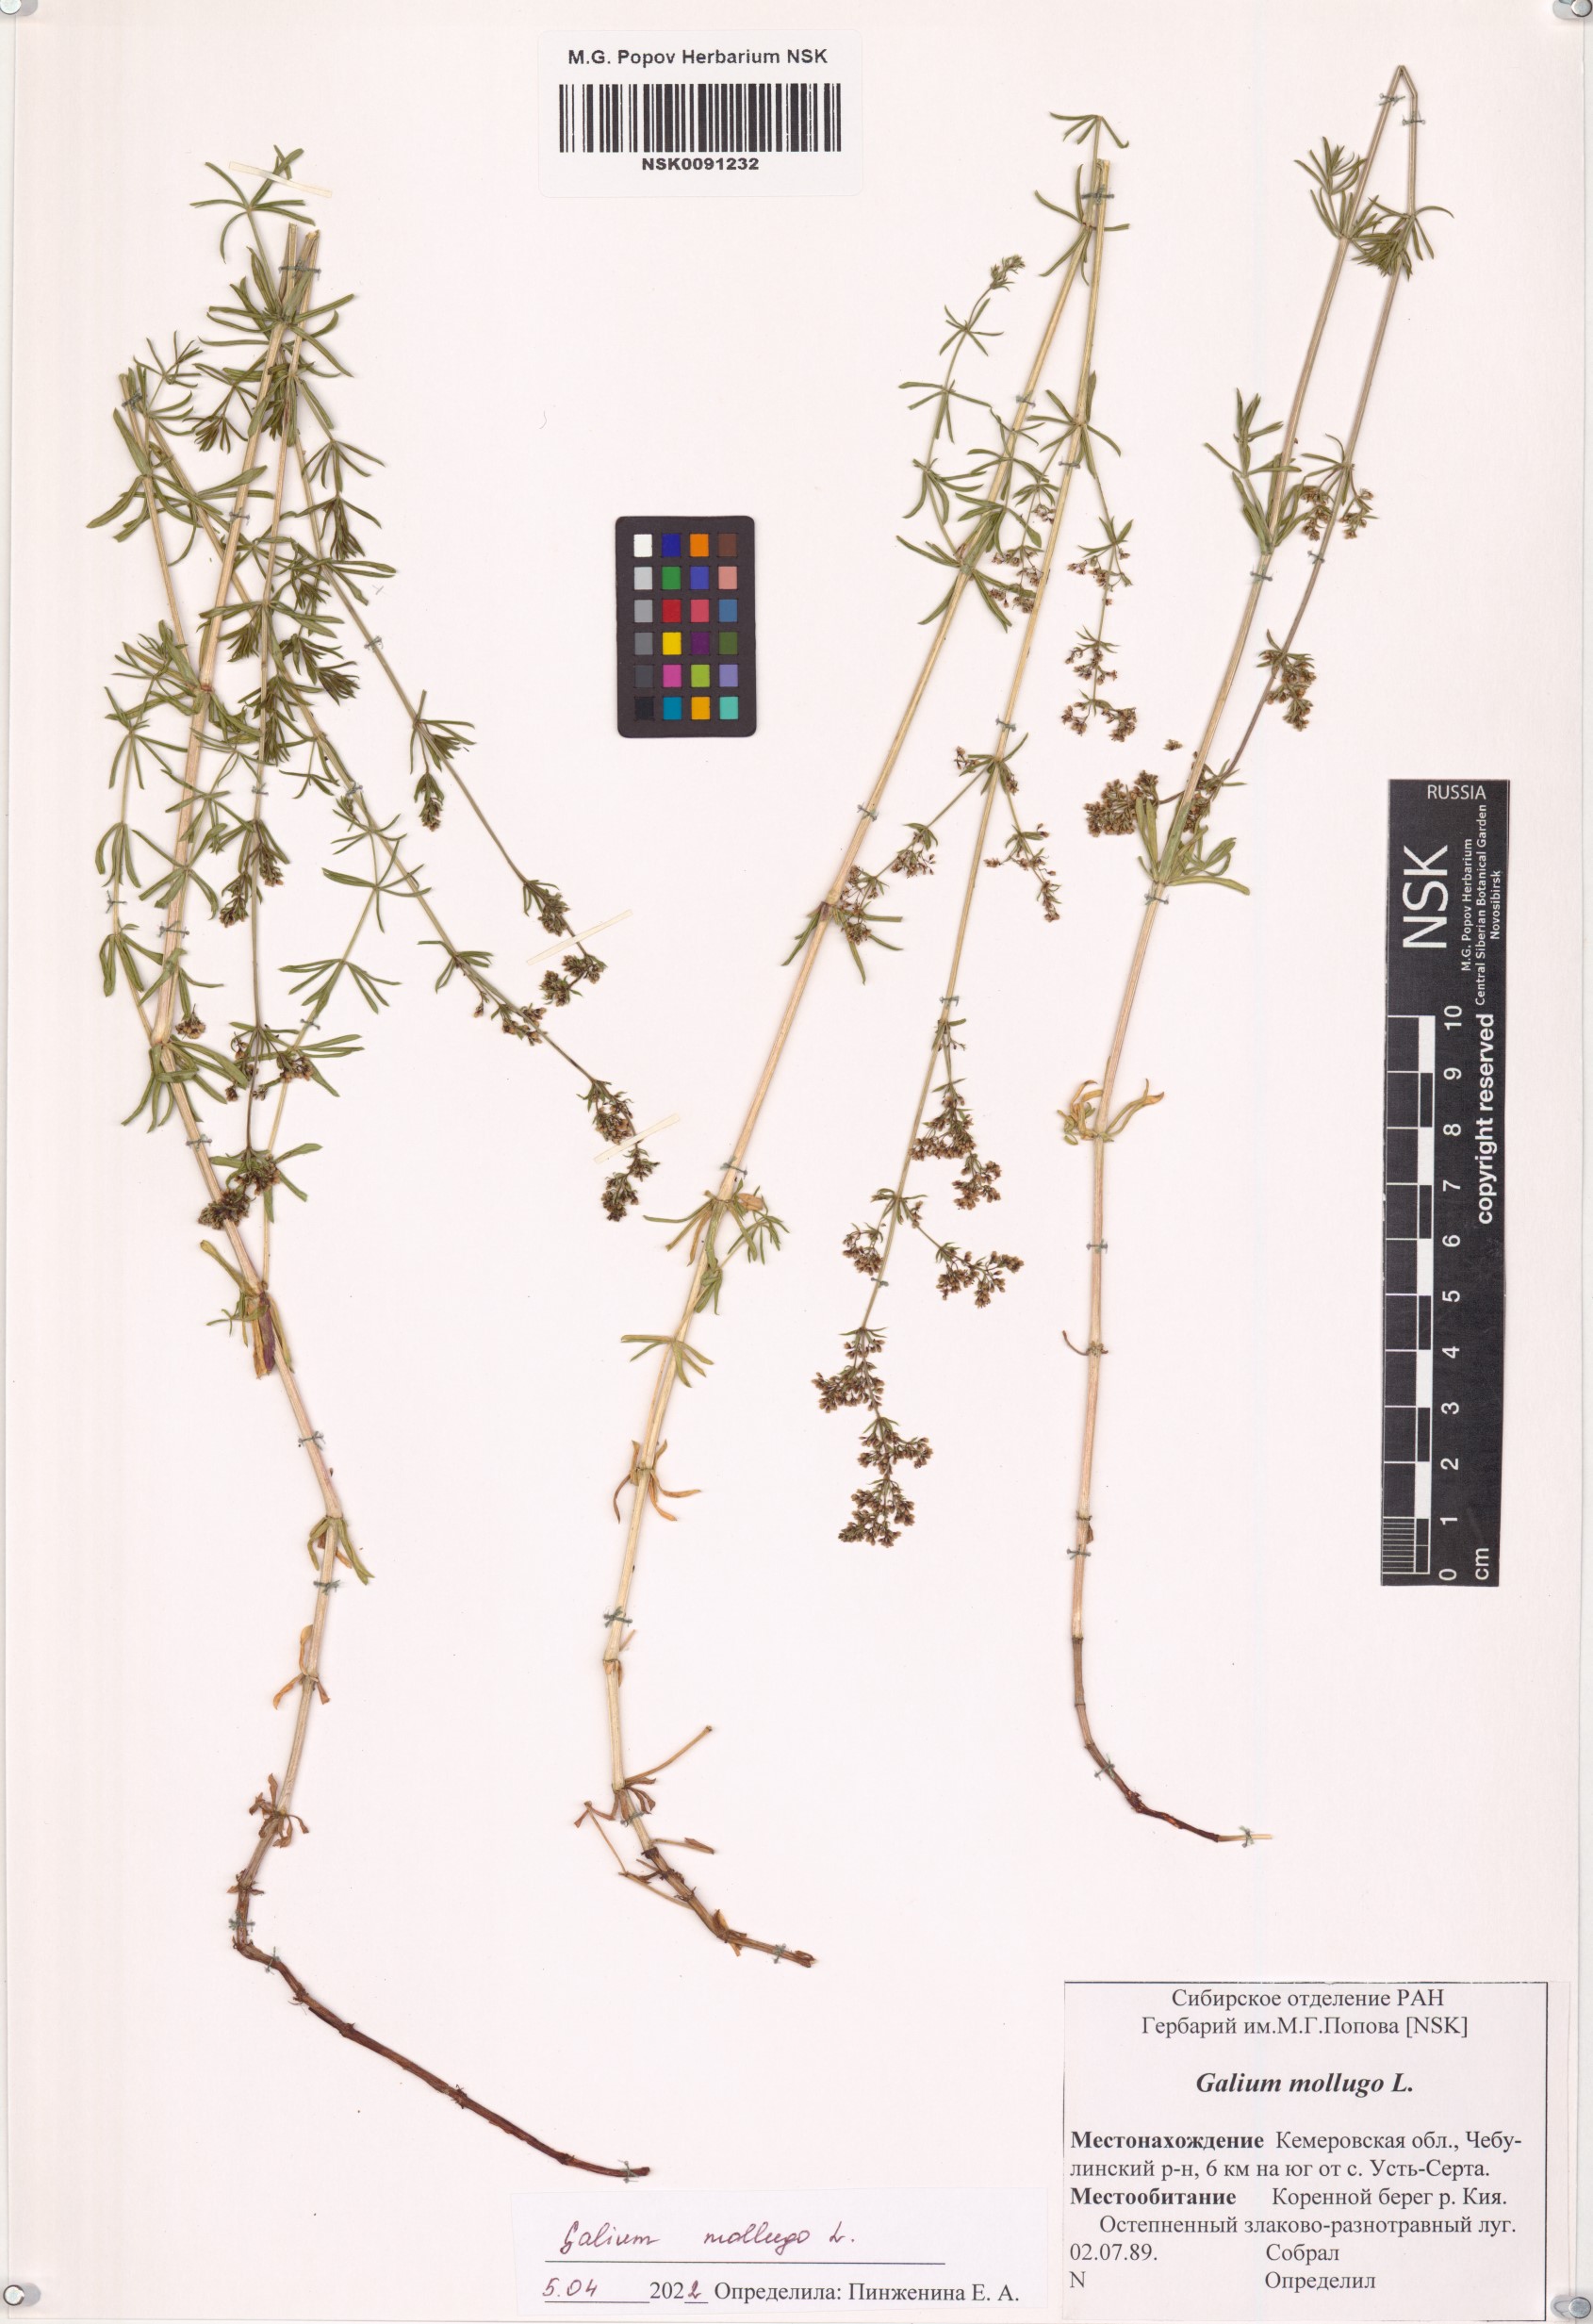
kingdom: Plantae
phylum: Tracheophyta
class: Magnoliopsida
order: Gentianales
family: Rubiaceae
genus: Galium
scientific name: Galium mollugo
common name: Hedge bedstraw
